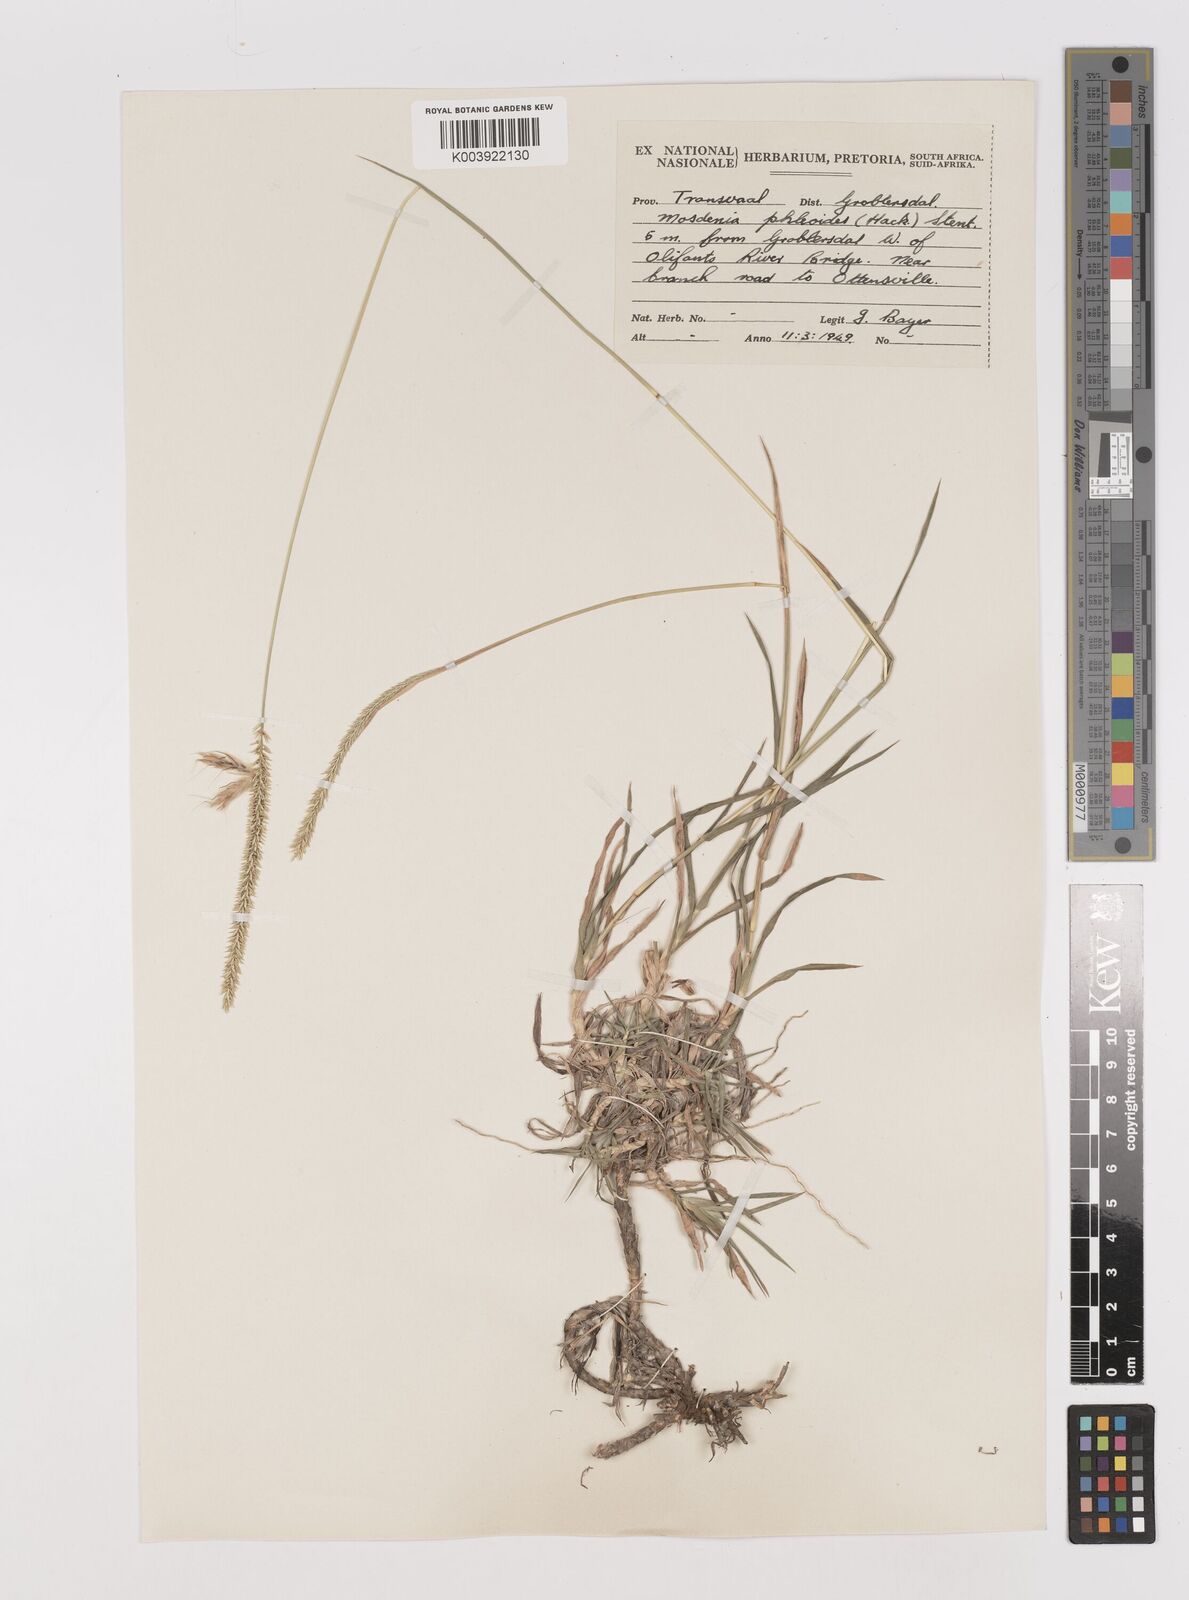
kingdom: Plantae
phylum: Tracheophyta
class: Liliopsida
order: Poales
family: Poaceae
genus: Mosdenia
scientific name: Mosdenia leptostachys
